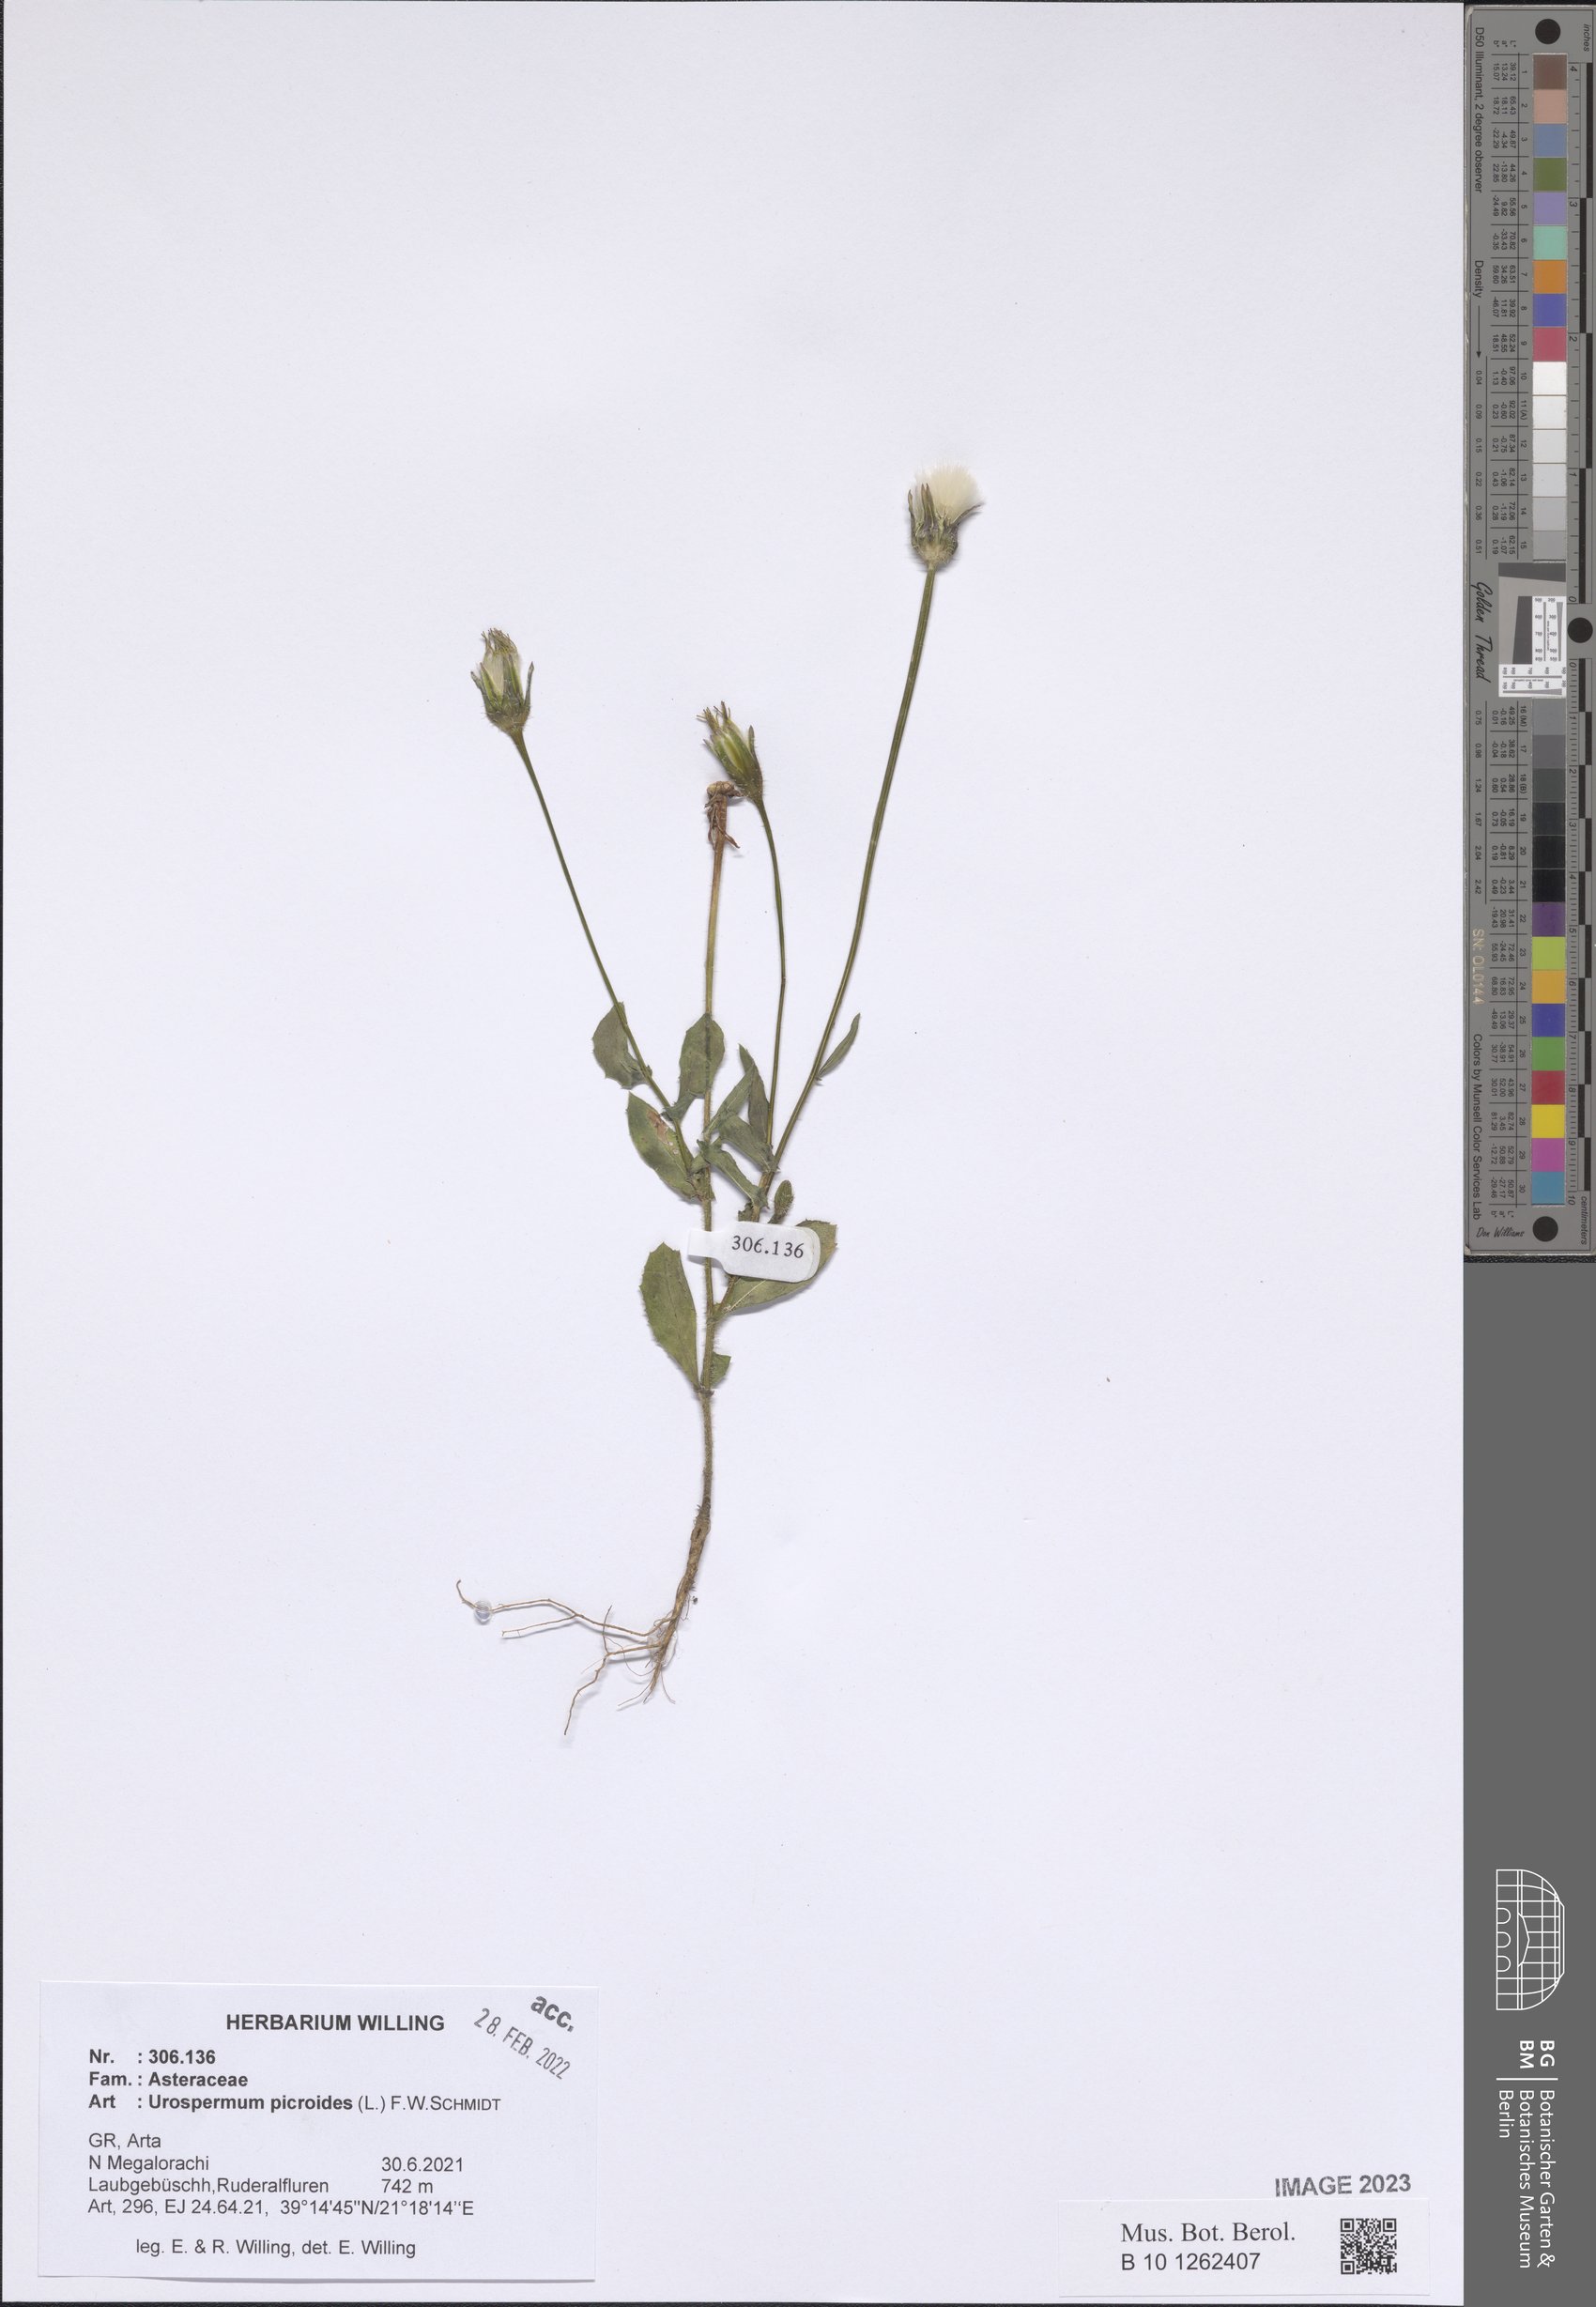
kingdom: Plantae
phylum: Tracheophyta
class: Magnoliopsida
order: Asterales
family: Asteraceae
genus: Urospermum
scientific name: Urospermum picroides
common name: False hawkbit
